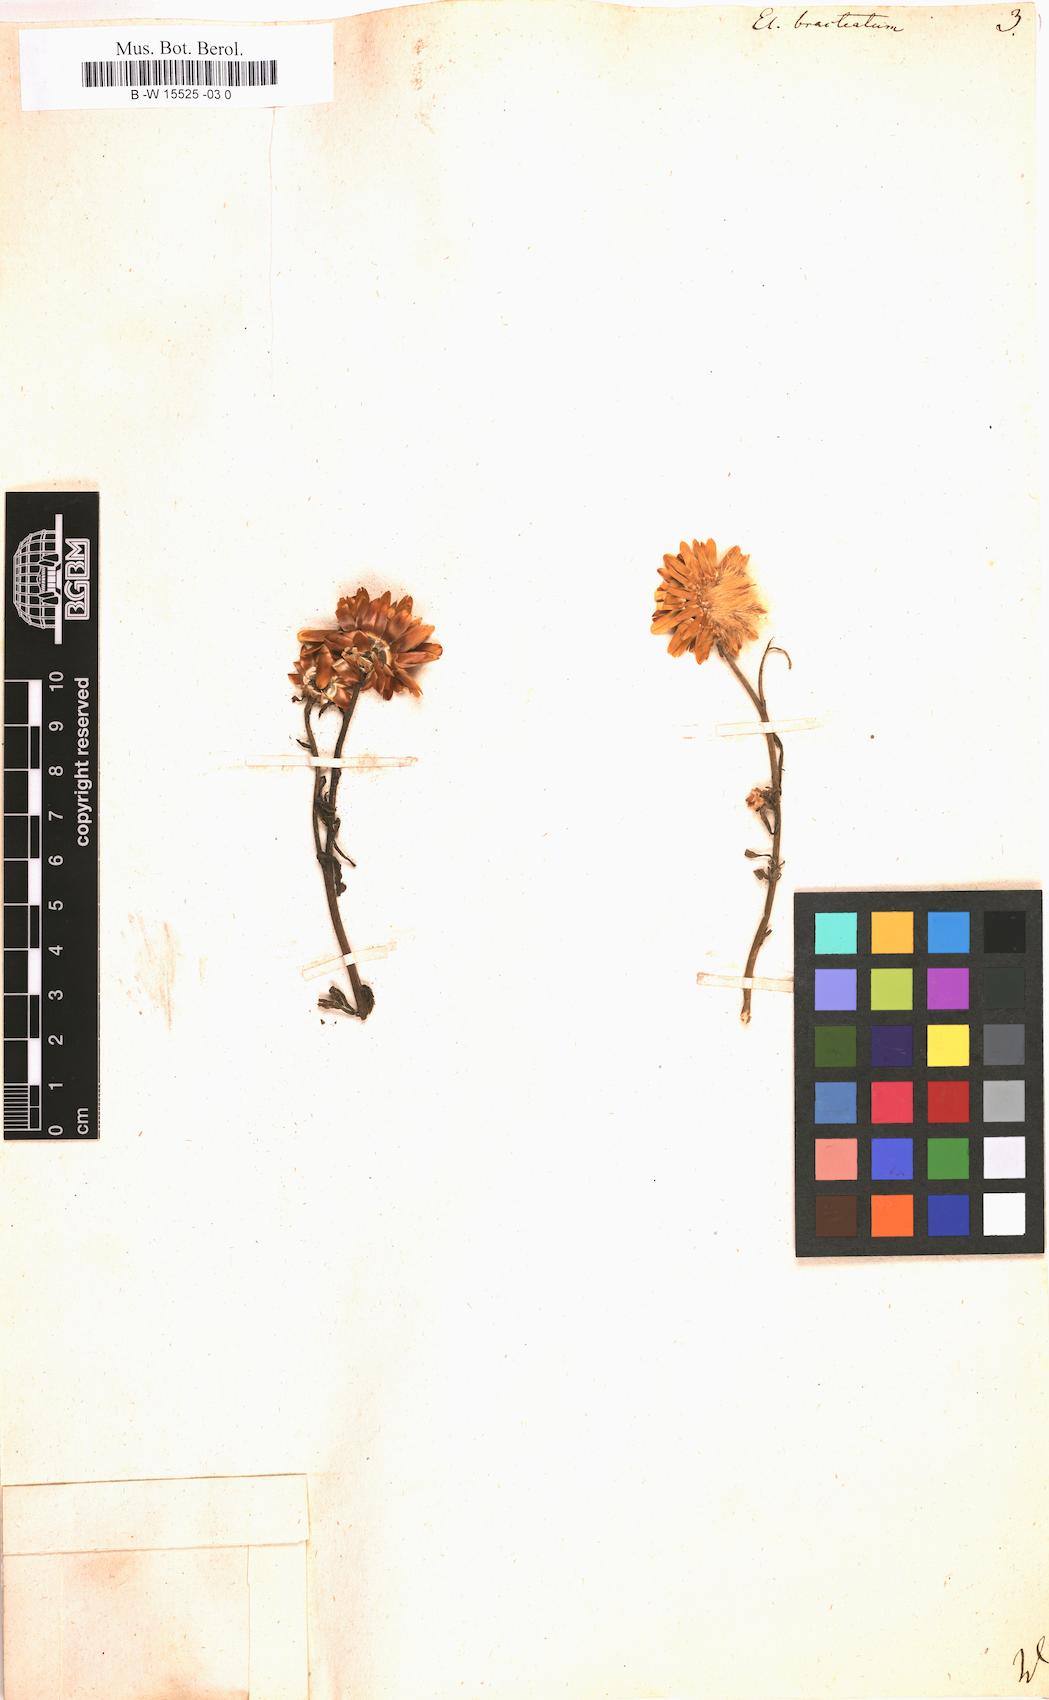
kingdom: Plantae
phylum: Tracheophyta
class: Magnoliopsida
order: Asterales
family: Asteraceae
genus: Xerochrysum
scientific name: Xerochrysum bracteatum
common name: Bracted strawflower
